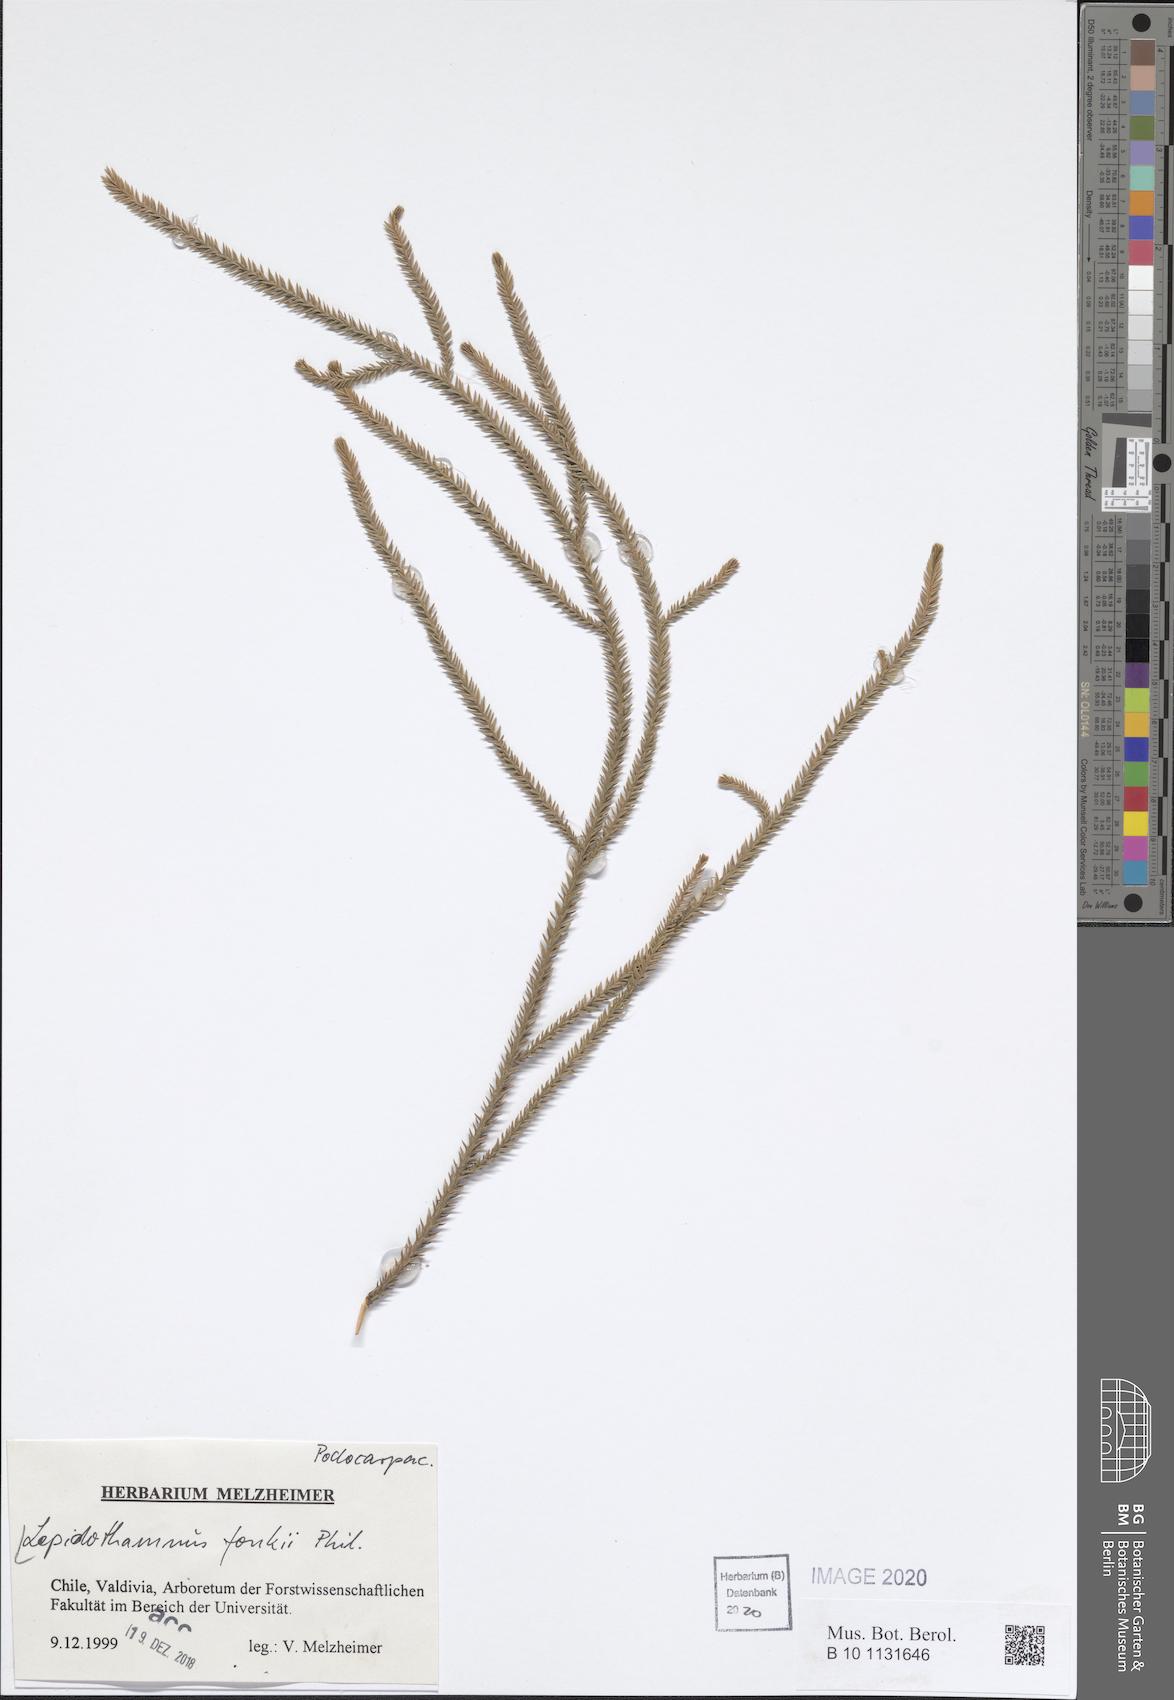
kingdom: Plantae
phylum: Tracheophyta
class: Pinopsida
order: Pinales
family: Podocarpaceae
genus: Lepidothamnus
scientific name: Lepidothamnus fonkii
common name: Chilean rimu
